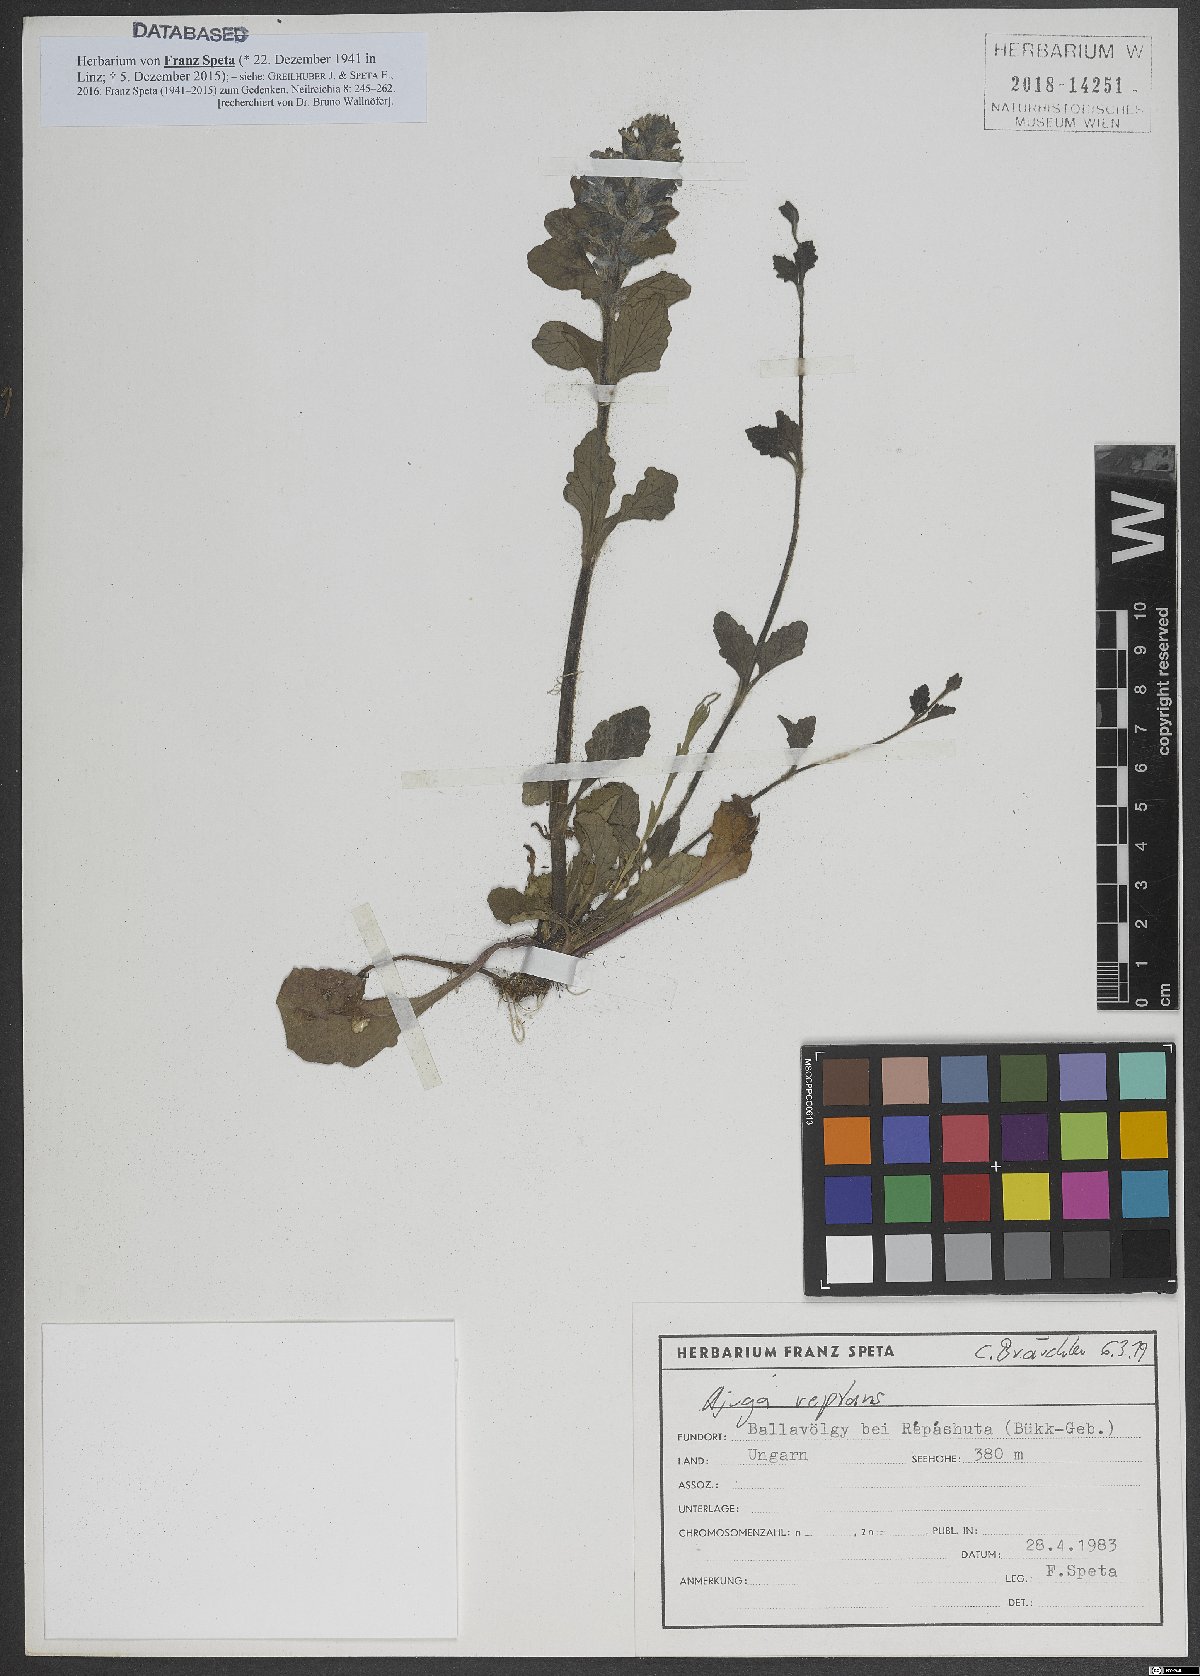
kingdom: Plantae
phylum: Tracheophyta
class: Magnoliopsida
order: Lamiales
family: Lamiaceae
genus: Glechoma
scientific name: Glechoma hederacea
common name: Ground ivy
